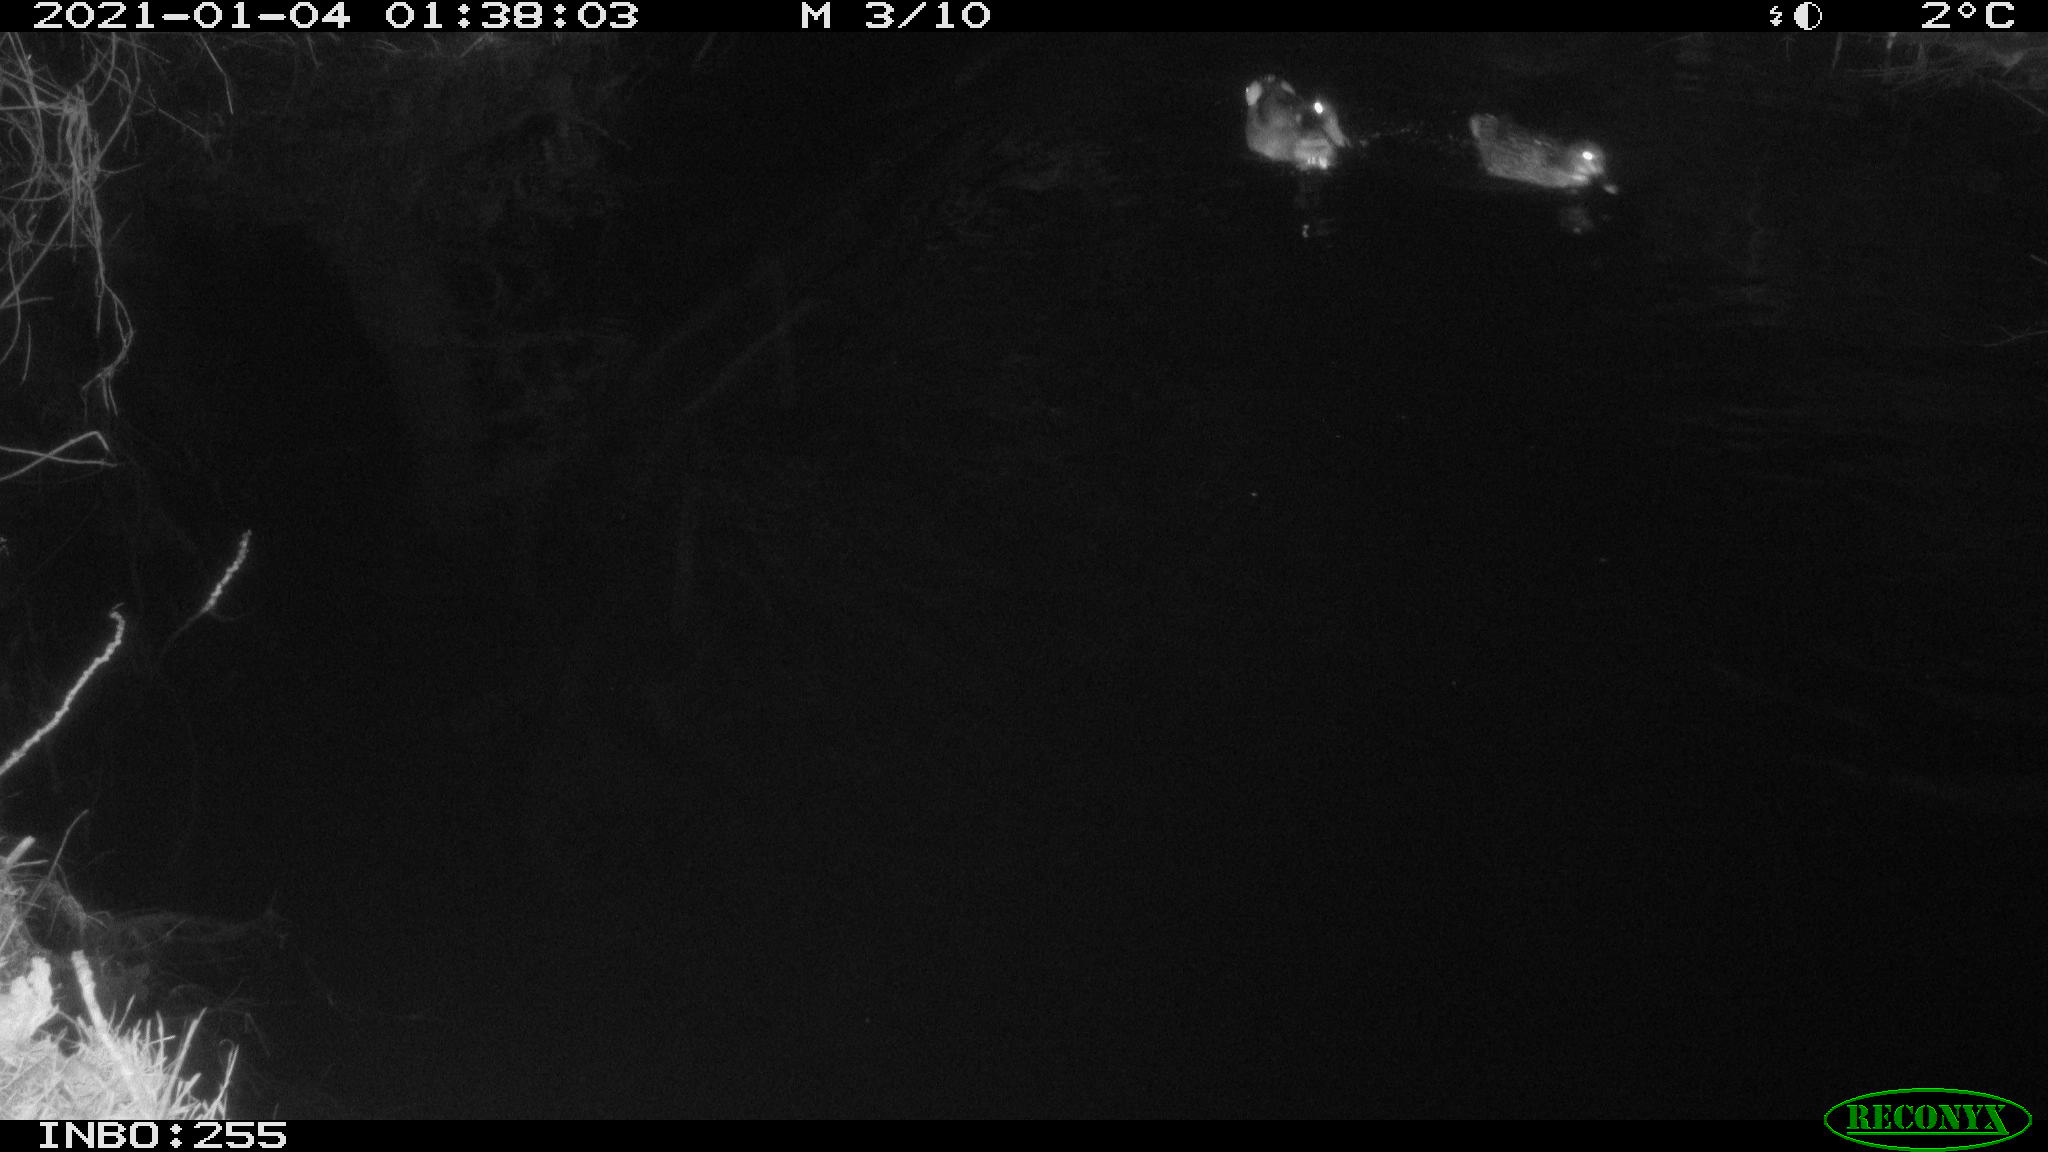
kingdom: Animalia
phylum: Chordata
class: Aves
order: Anseriformes
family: Anatidae
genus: Anas
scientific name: Anas platyrhynchos
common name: Mallard
